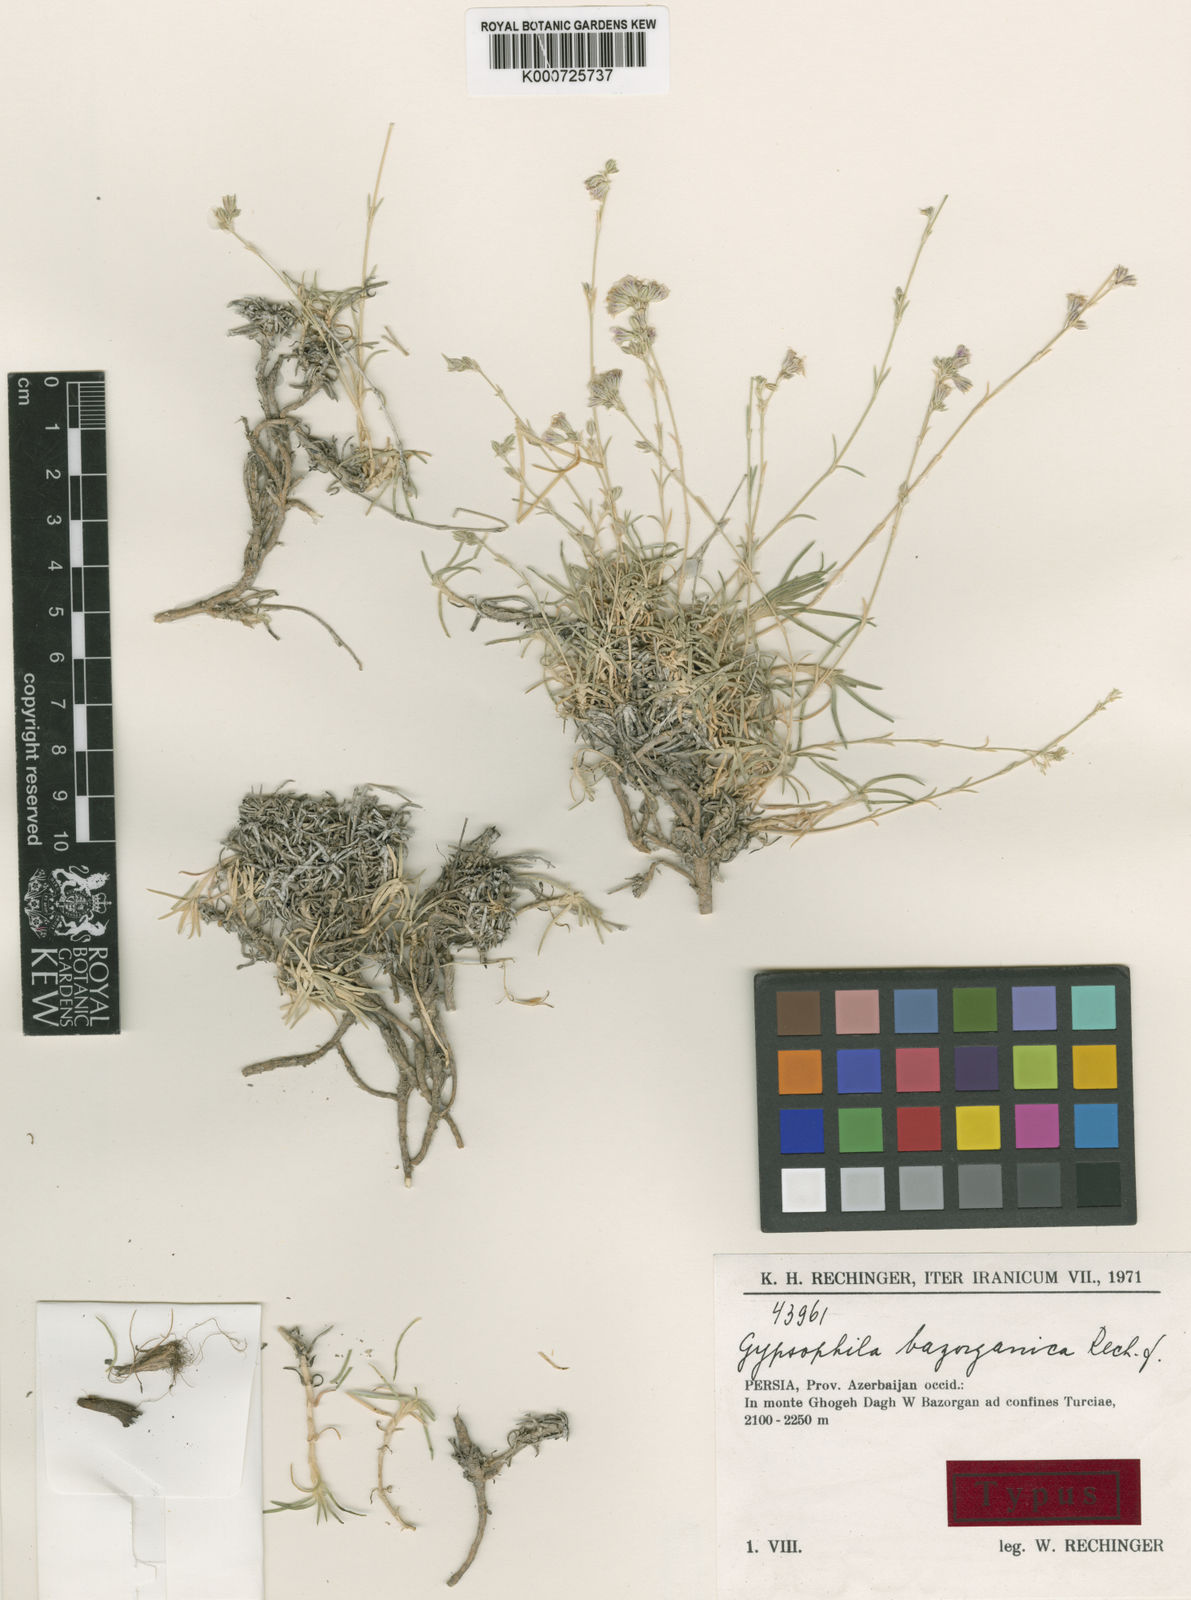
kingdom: Plantae
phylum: Tracheophyta
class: Magnoliopsida
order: Caryophyllales
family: Caryophyllaceae
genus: Gypsophila
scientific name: Gypsophila bazorganica
